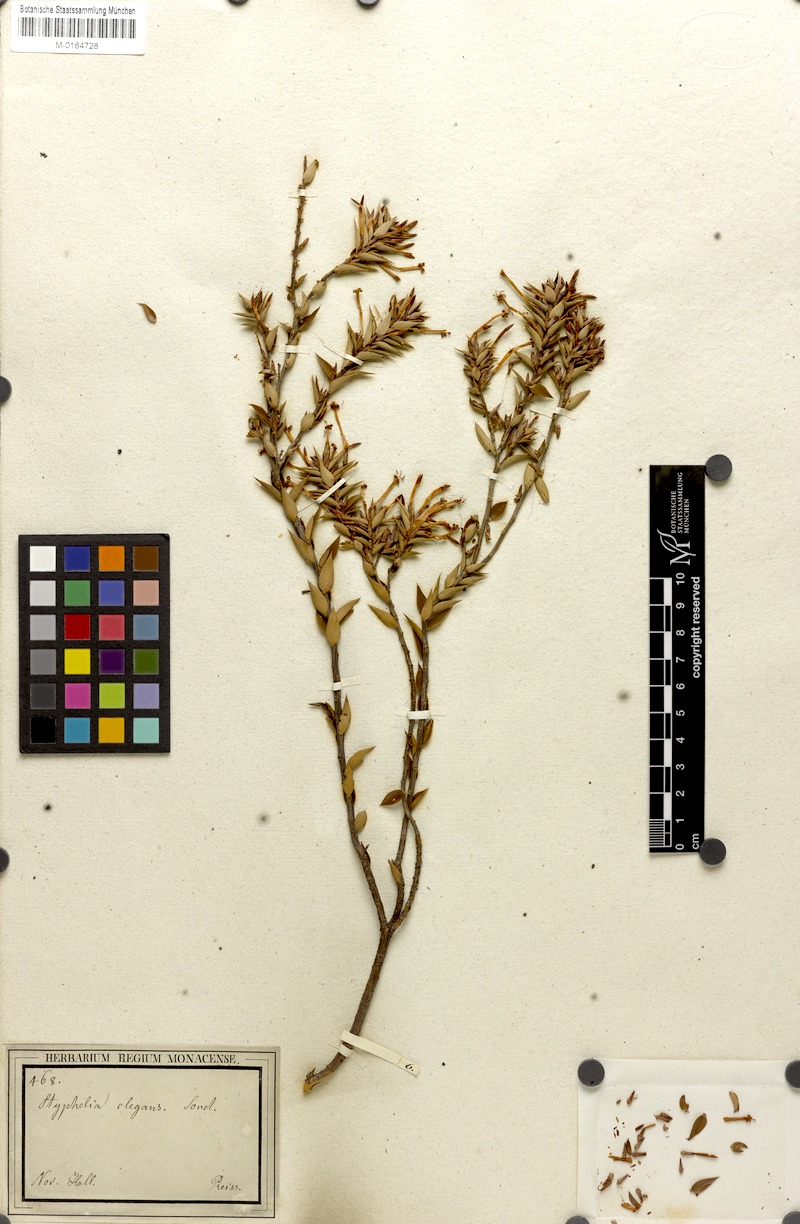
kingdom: Plantae
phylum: Tracheophyta
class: Magnoliopsida
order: Ericales
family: Ericaceae
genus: Styphelia
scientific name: Styphelia tenuiflora
